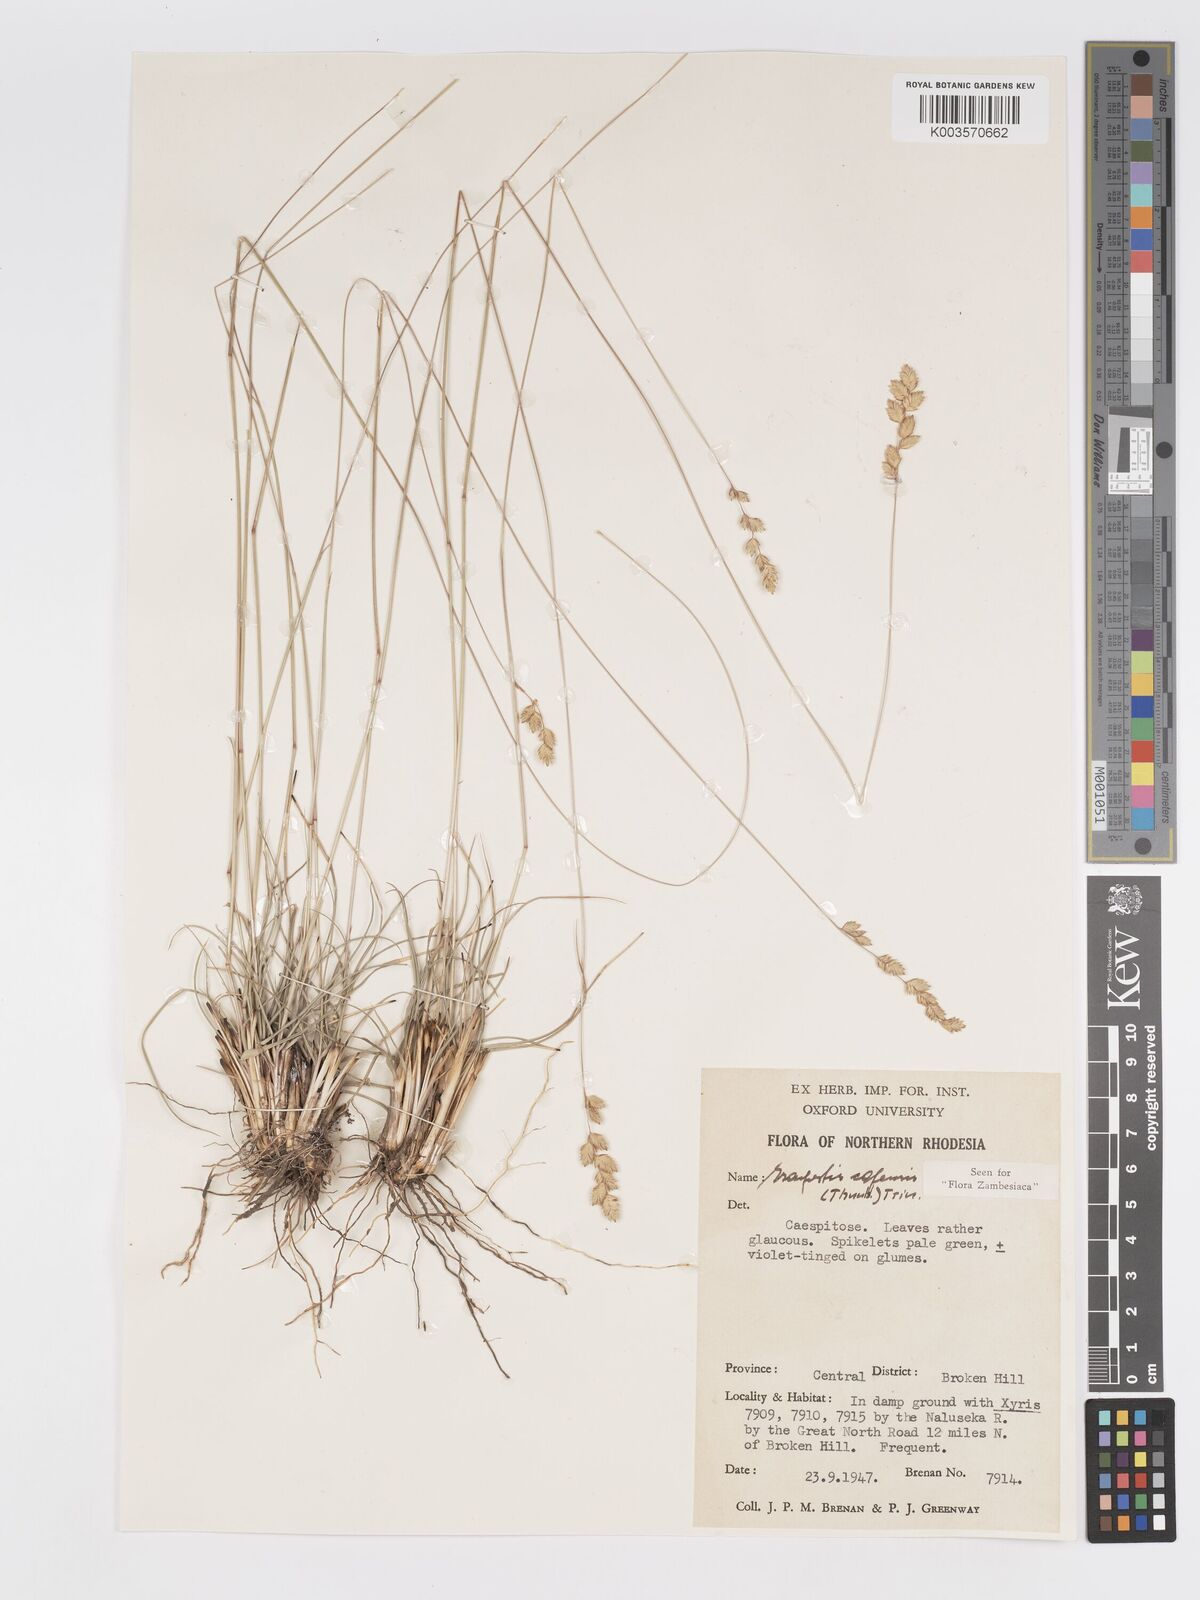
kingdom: Plantae
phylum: Tracheophyta
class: Liliopsida
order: Poales
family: Poaceae
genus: Eragrostis
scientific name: Eragrostis capensis
